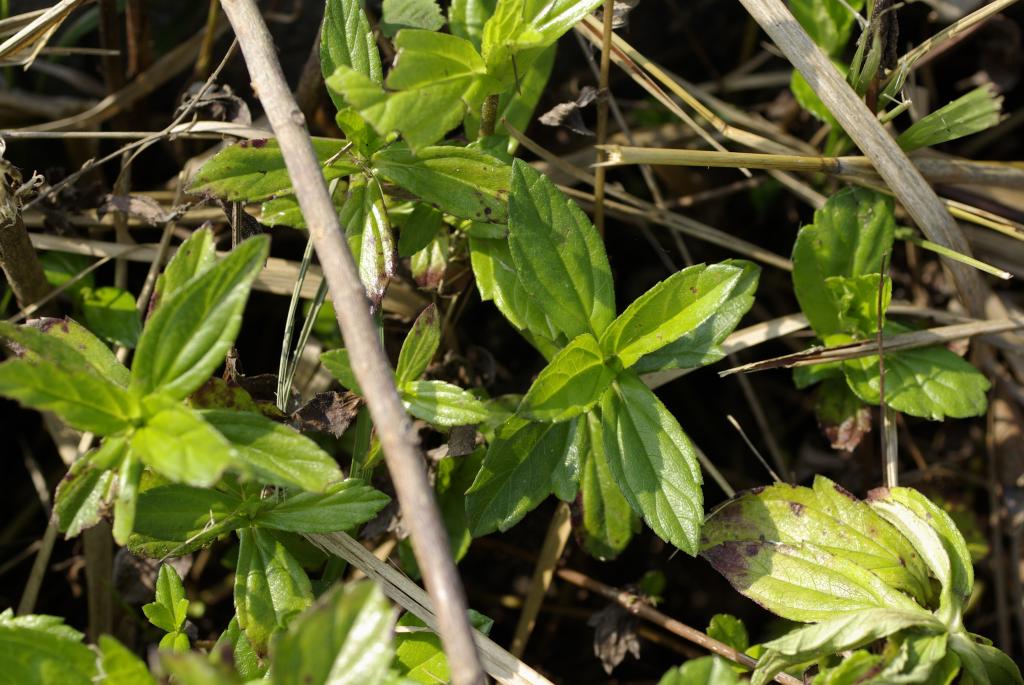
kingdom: Plantae
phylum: Tracheophyta
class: Magnoliopsida
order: Asterales
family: Asteraceae
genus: Sphagneticola
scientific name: Sphagneticola trilobata
